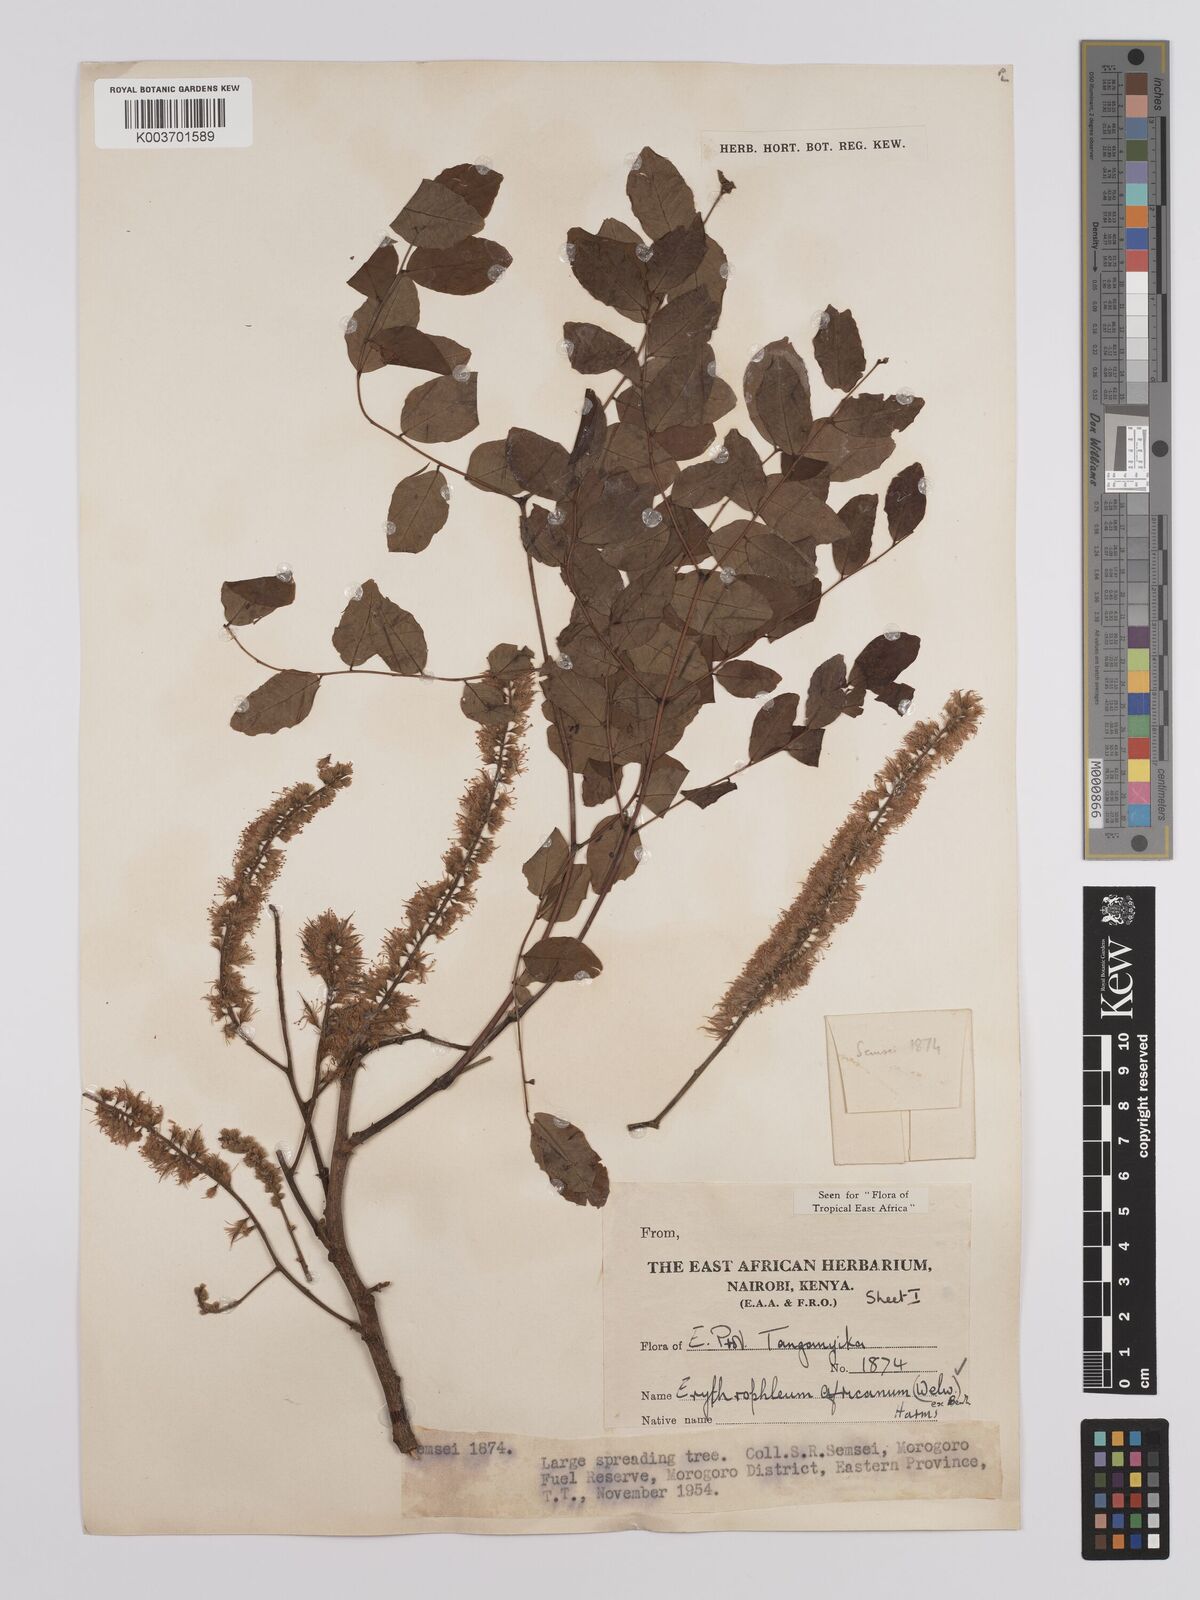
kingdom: Plantae
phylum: Tracheophyta
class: Magnoliopsida
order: Fabales
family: Fabaceae
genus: Erythrophleum
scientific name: Erythrophleum africanum
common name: African blackwood
